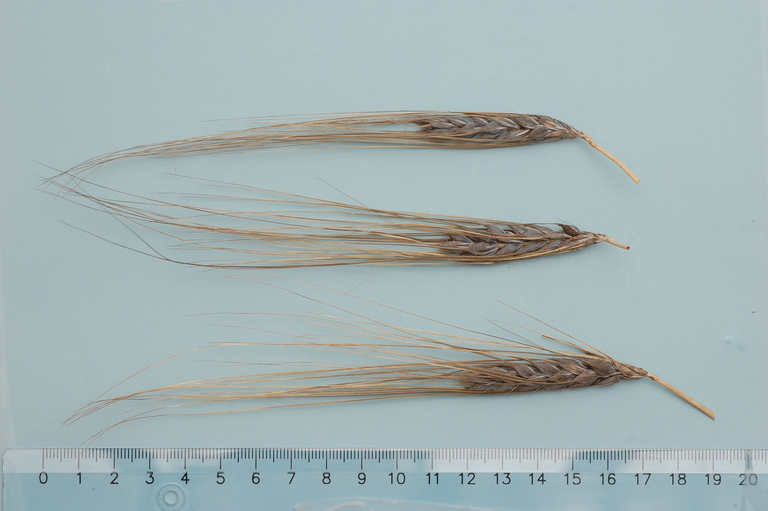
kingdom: Plantae
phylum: Tracheophyta
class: Liliopsida
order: Poales
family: Poaceae
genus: Hordeum
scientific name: Hordeum vulgare
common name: Common barley
